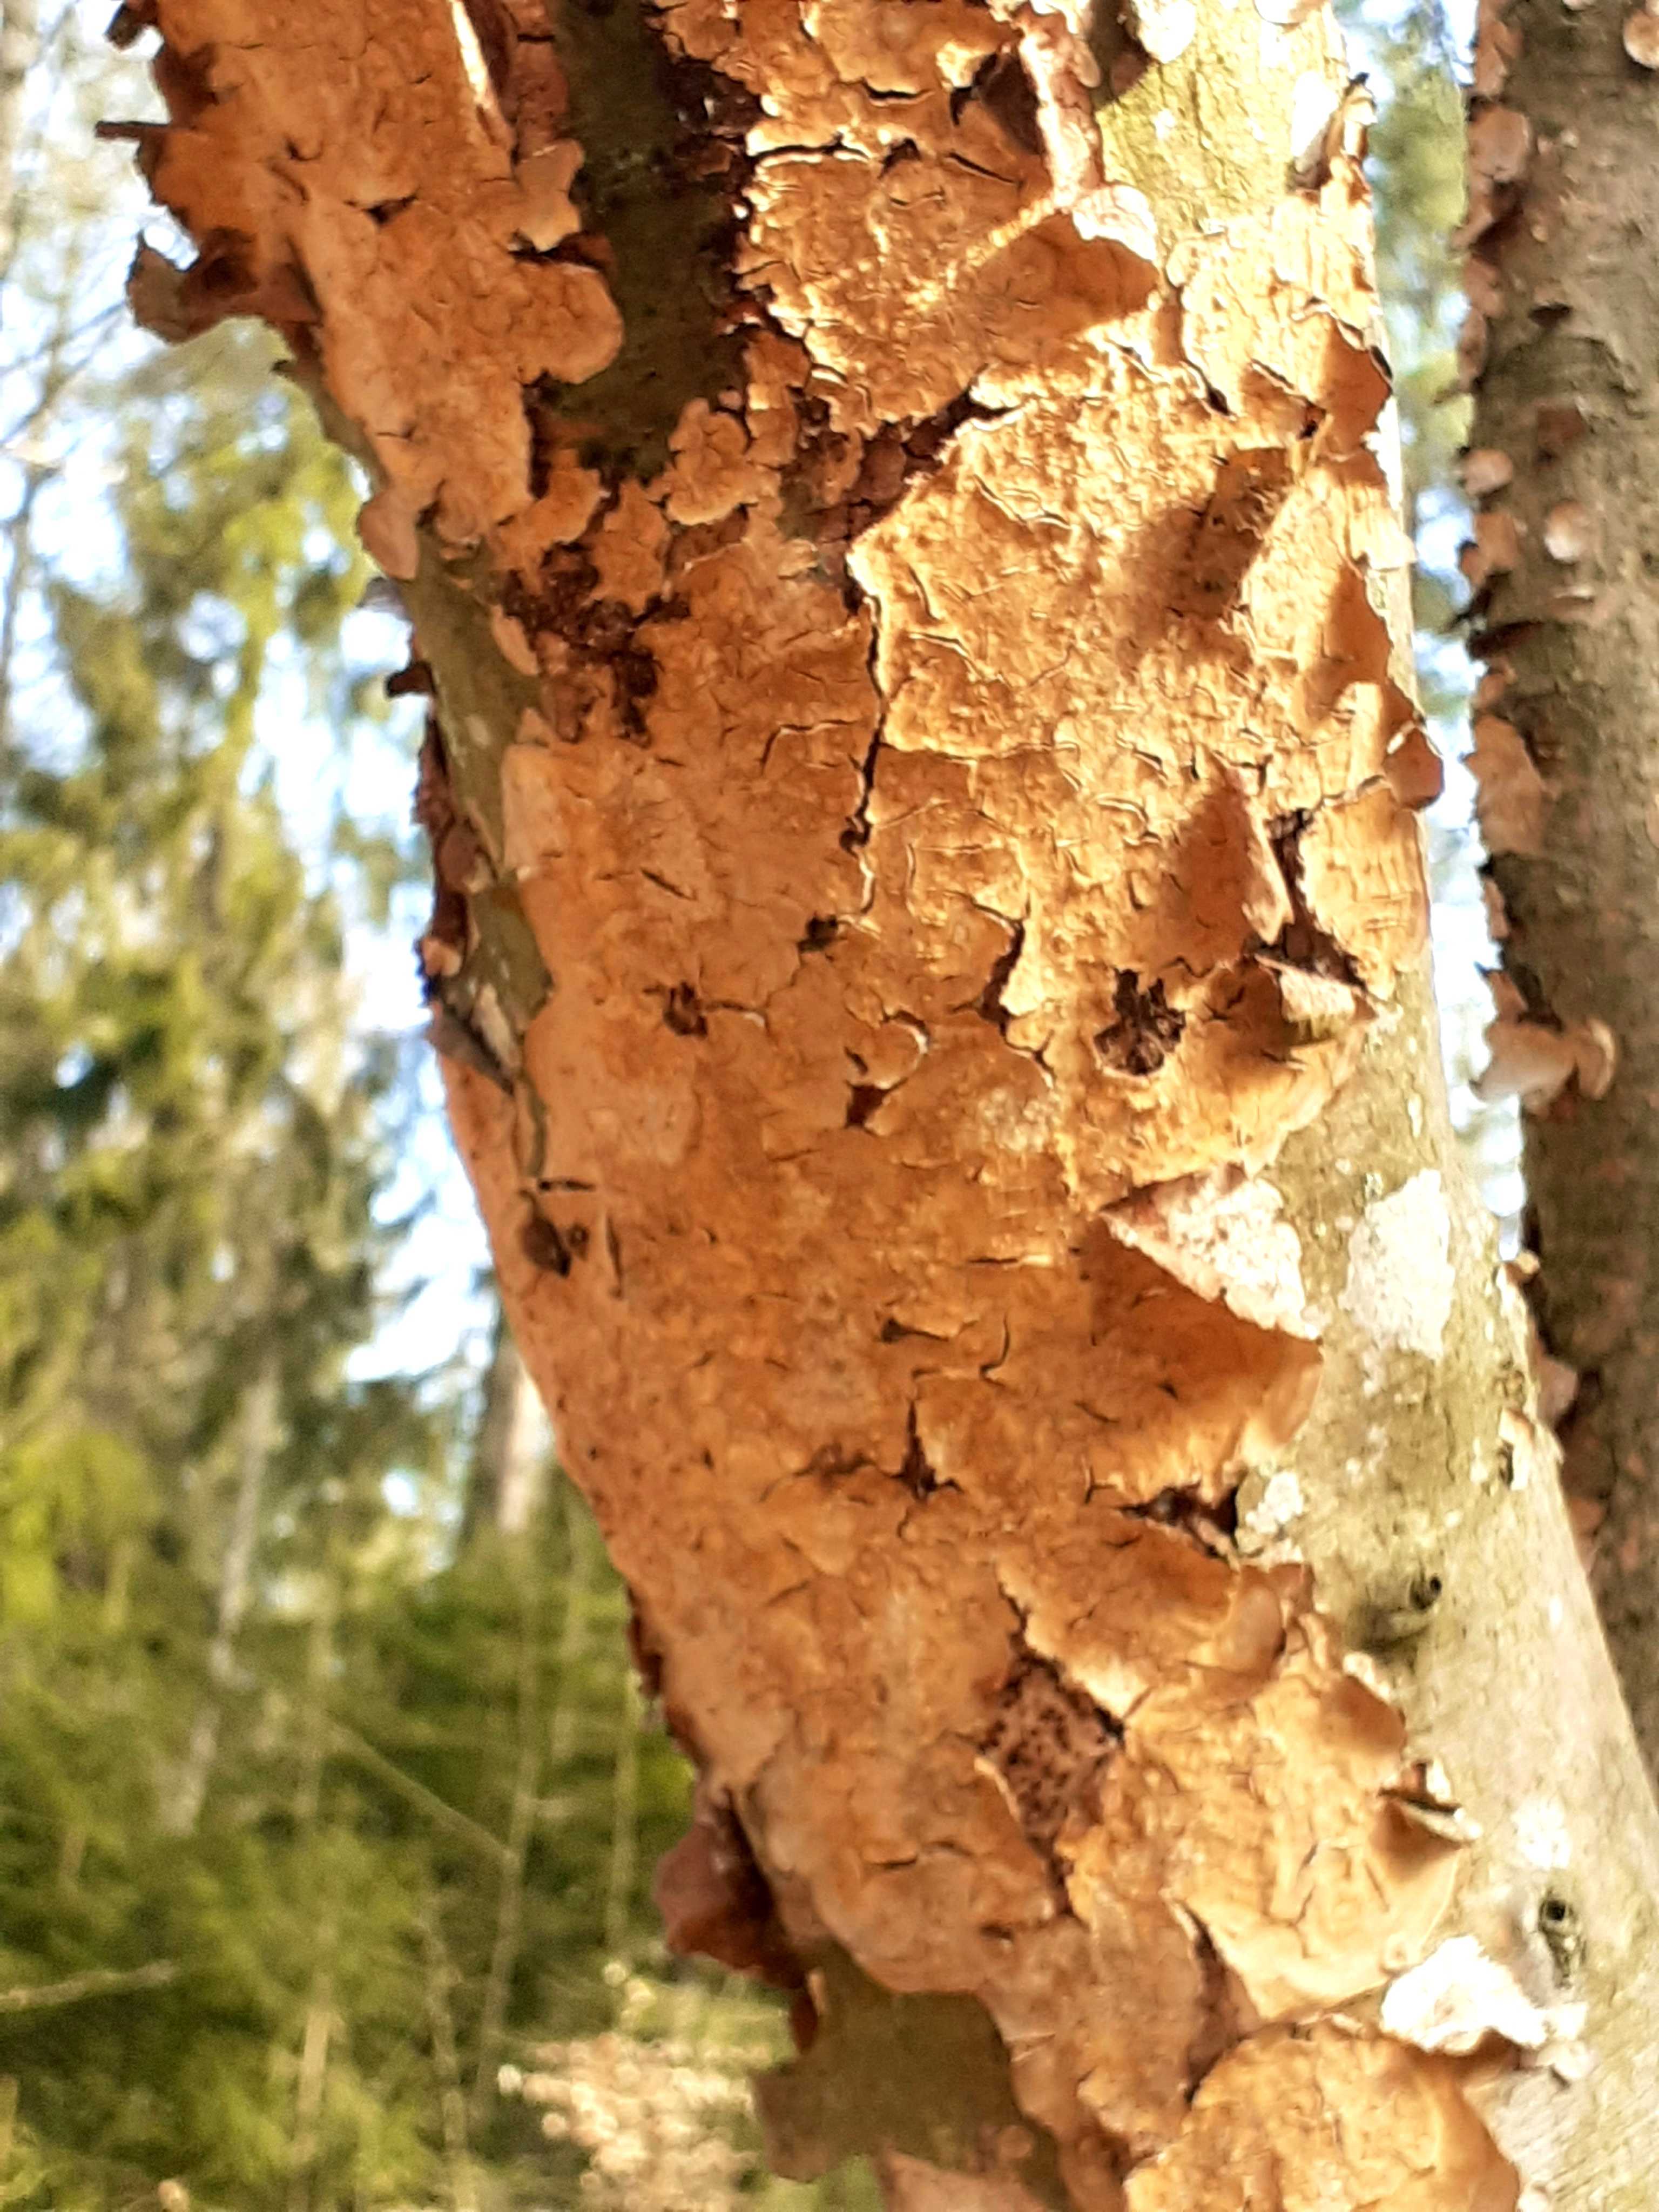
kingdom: Fungi
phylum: Basidiomycota
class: Agaricomycetes
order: Russulales
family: Stereaceae
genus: Stereum
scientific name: Stereum rugosum
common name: rynket lædersvamp
